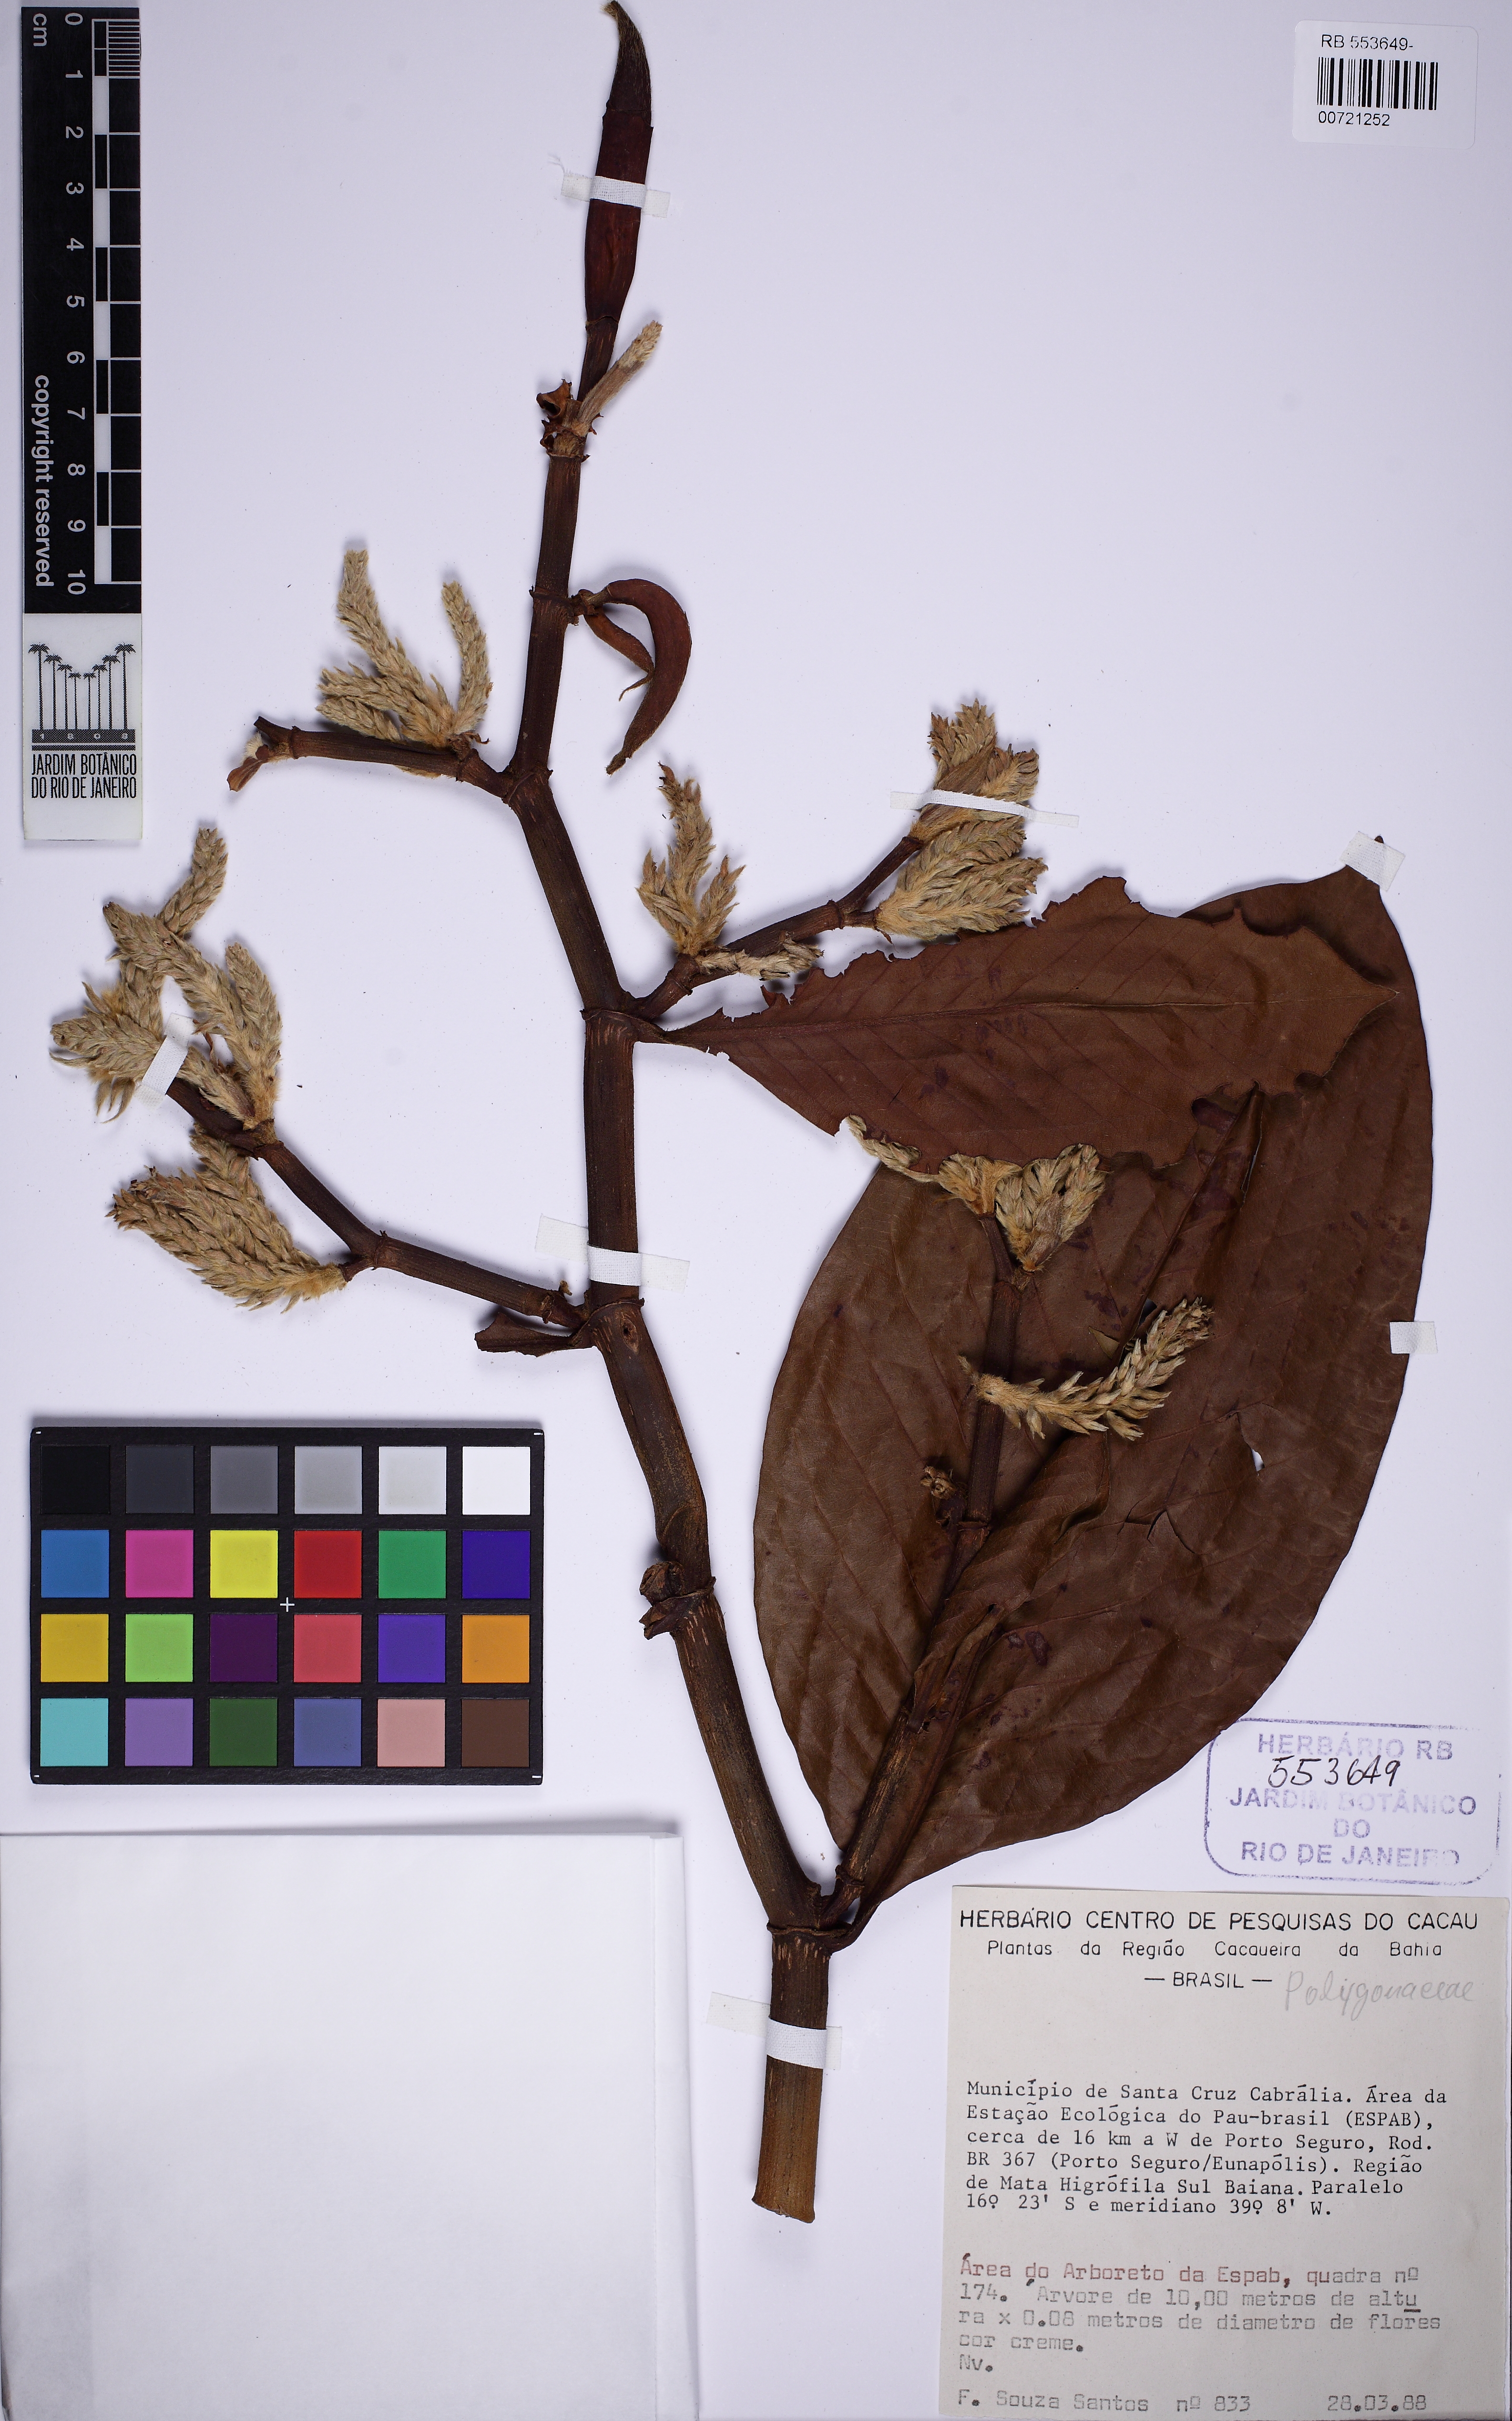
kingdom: Plantae
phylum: Tracheophyta
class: Magnoliopsida
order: Caryophyllales
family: Polygonaceae
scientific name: Polygonaceae
